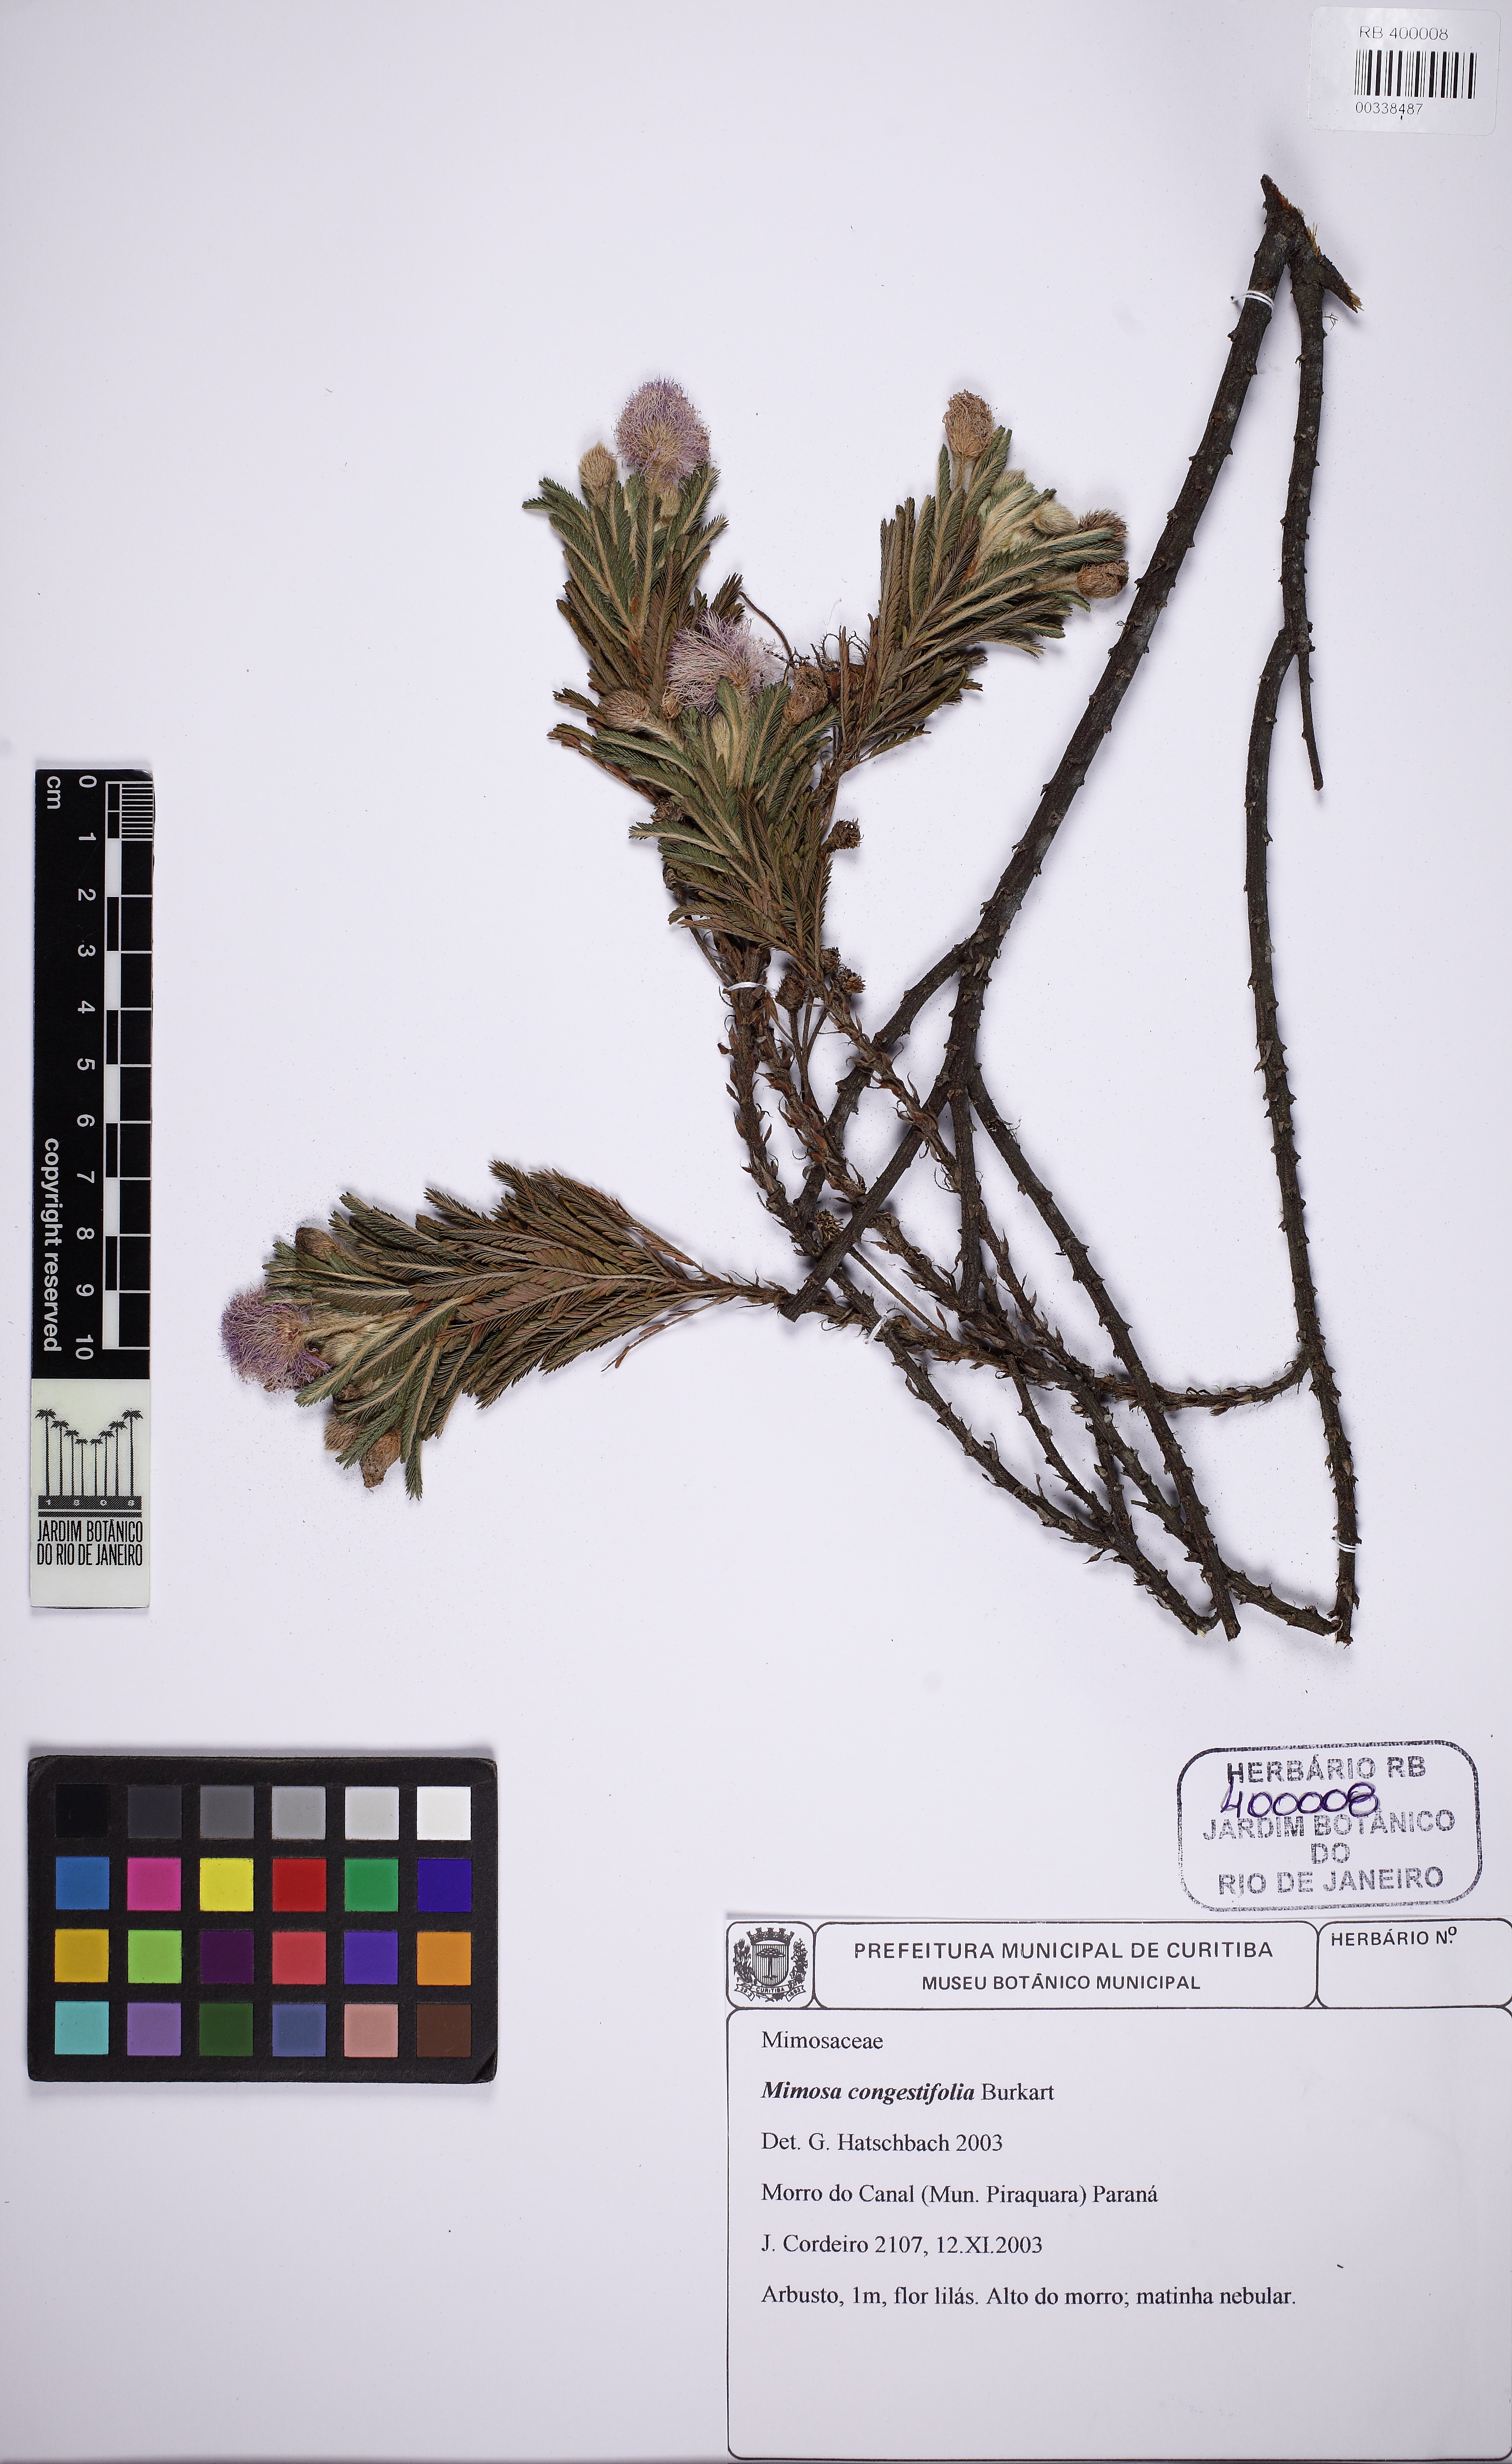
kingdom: Plantae
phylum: Tracheophyta
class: Magnoliopsida
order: Fabales
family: Fabaceae
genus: Mimosa
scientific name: Mimosa congestifolia
